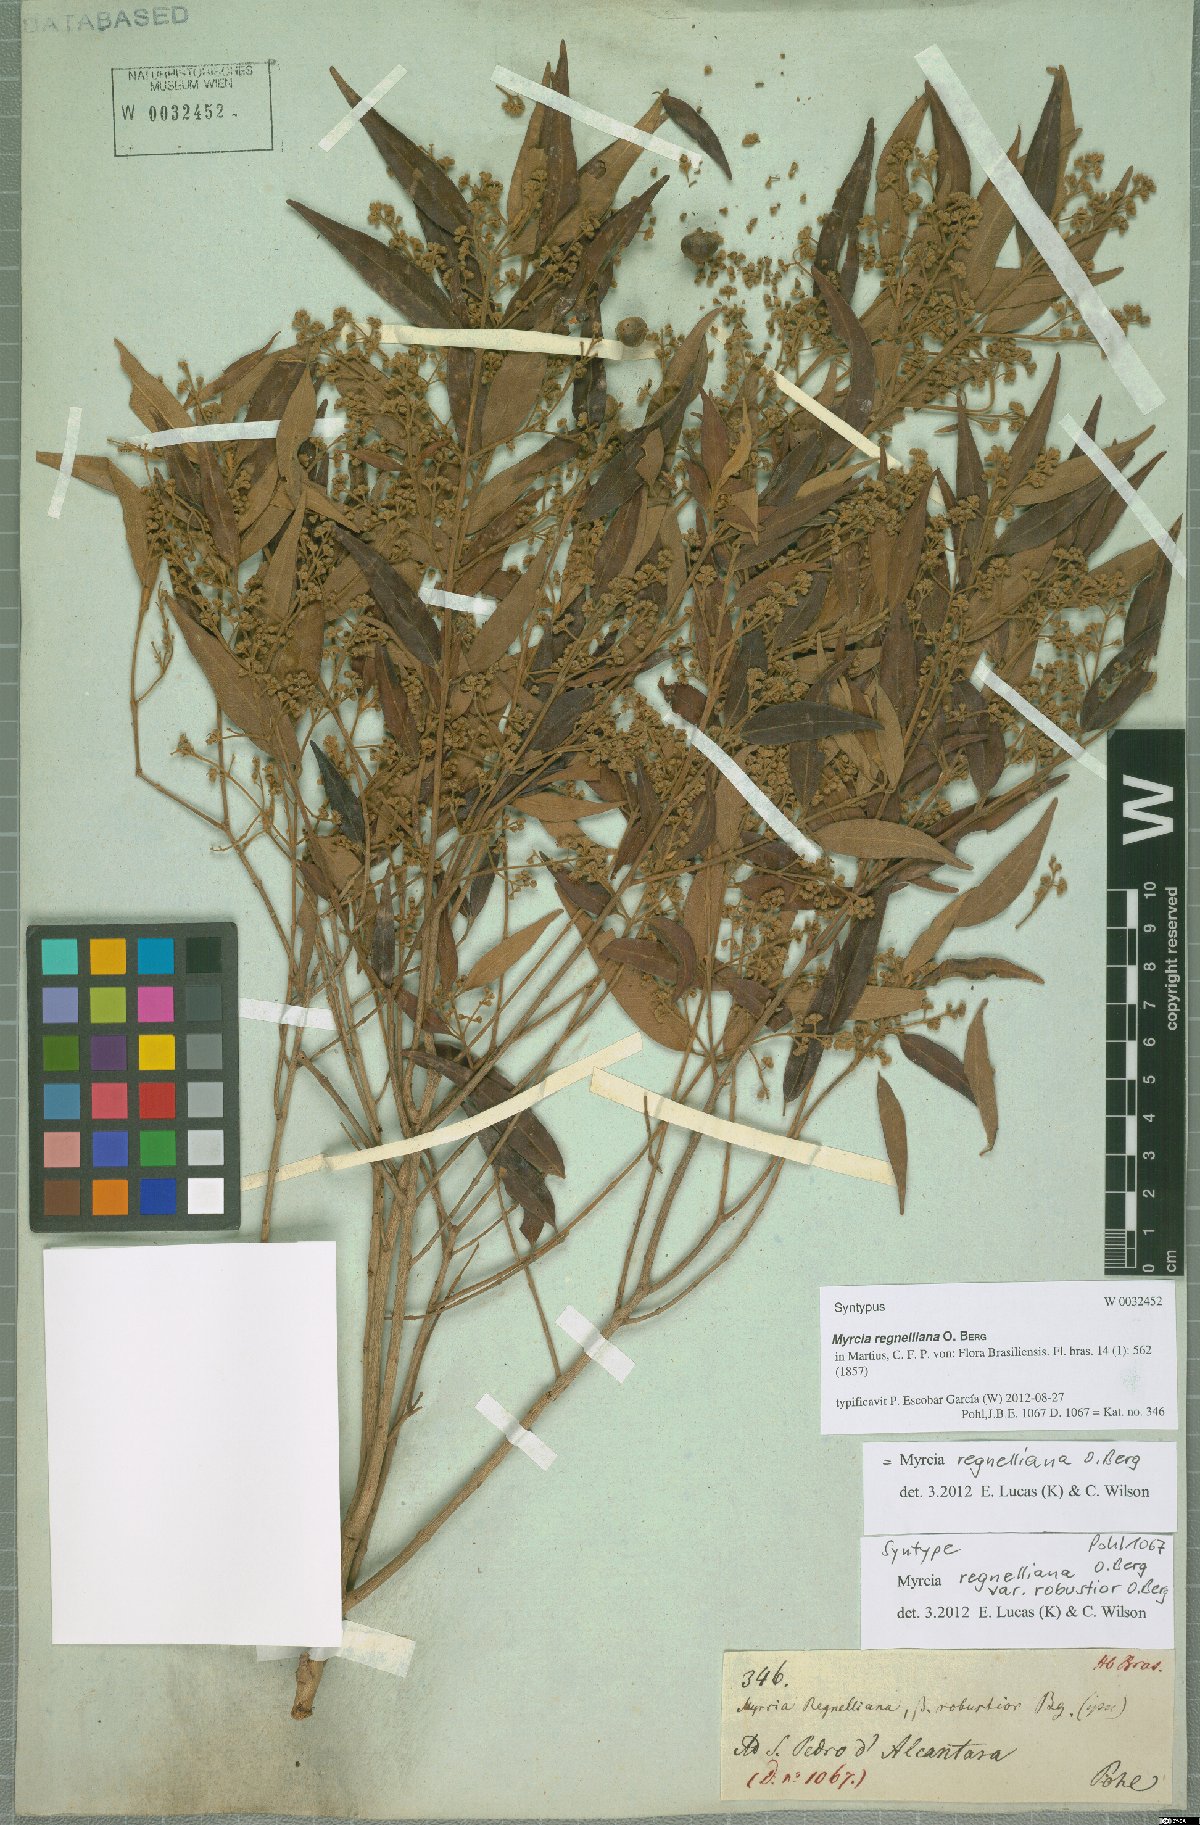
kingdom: Plantae
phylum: Tracheophyta
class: Magnoliopsida
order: Myrtales
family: Myrtaceae
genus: Myrcia
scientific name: Myrcia regnelliana
